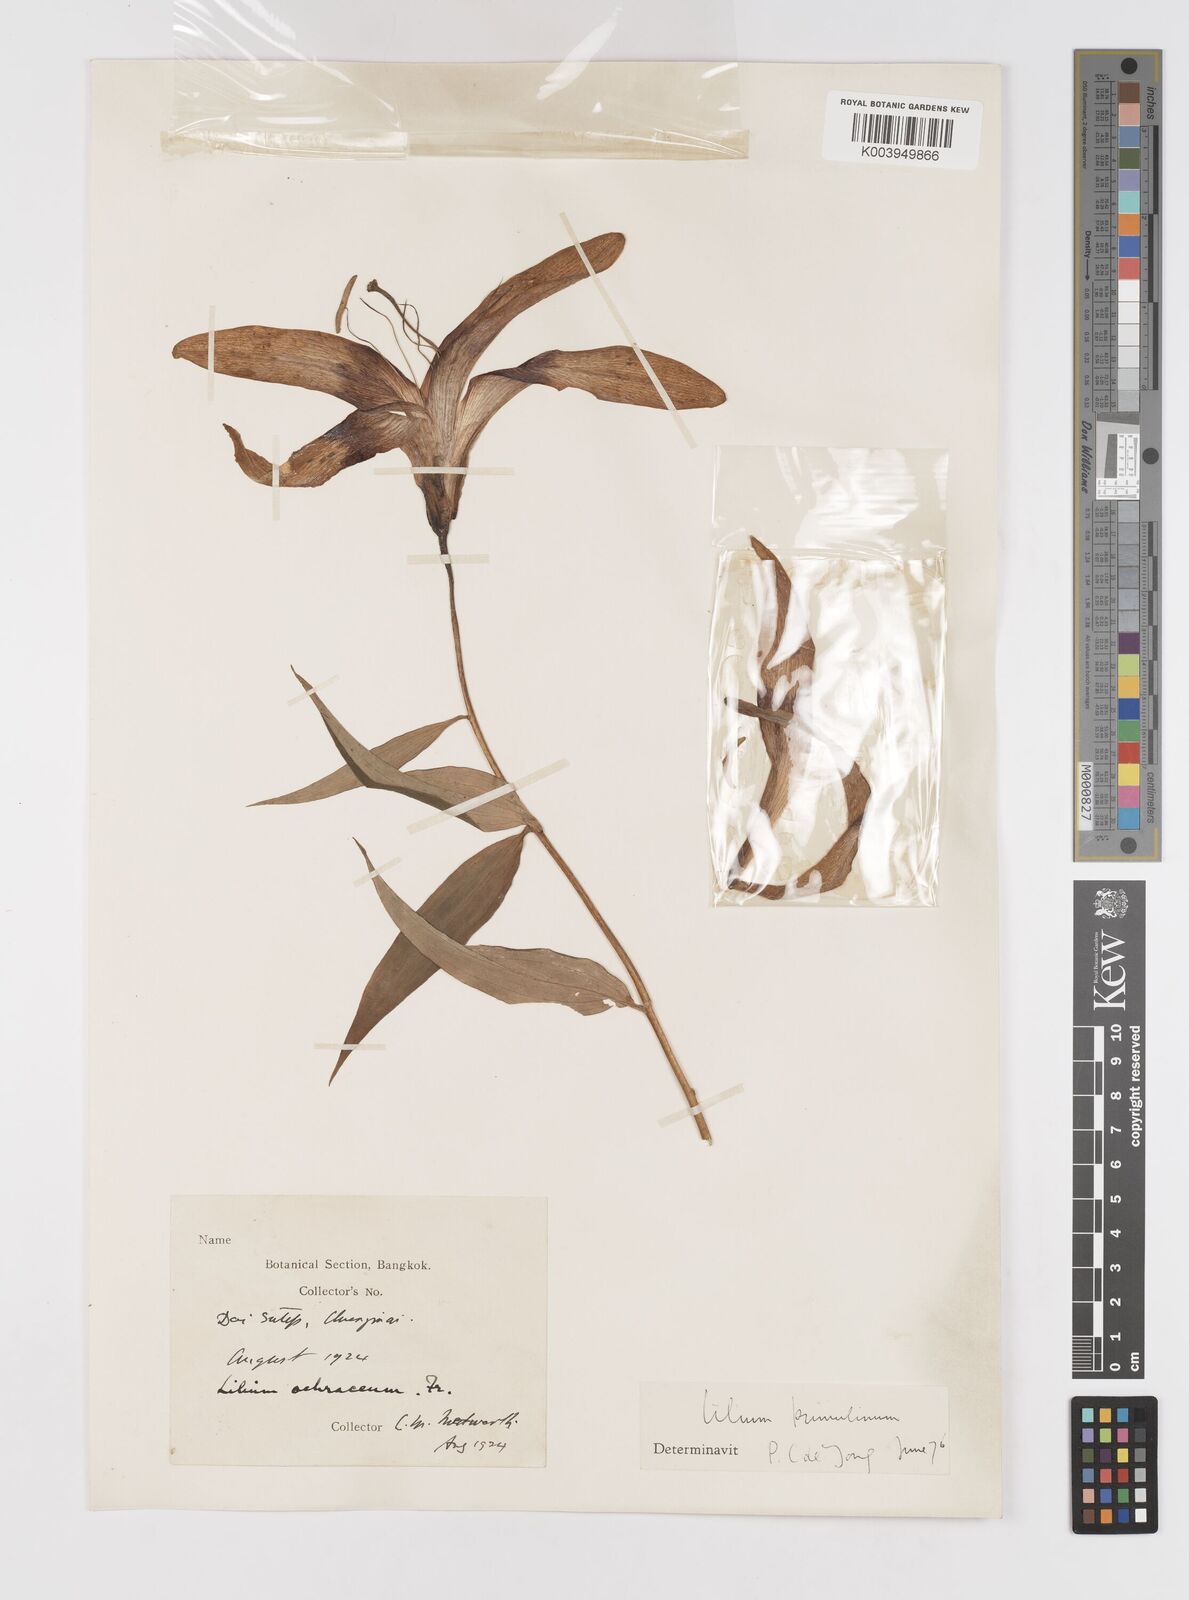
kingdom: Plantae
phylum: Tracheophyta
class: Liliopsida
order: Liliales
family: Liliaceae
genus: Lilium
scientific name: Lilium primulinum
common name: Ochre lily
